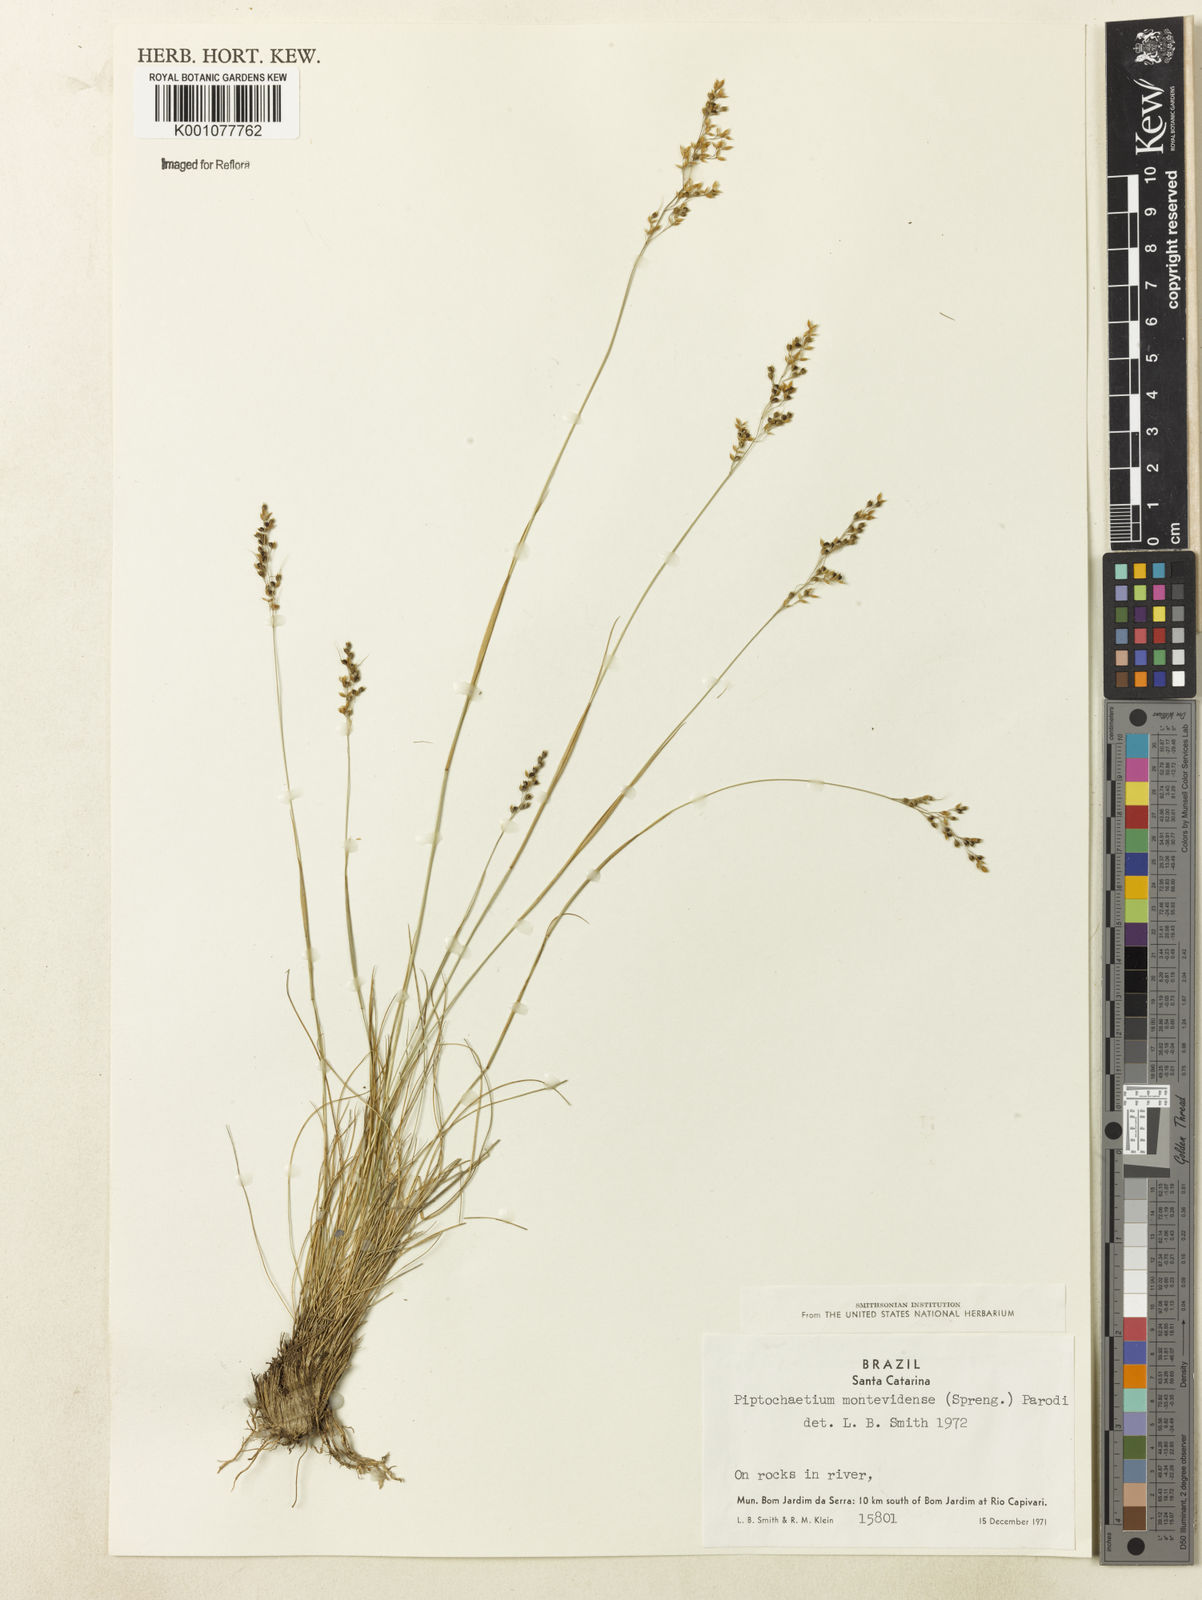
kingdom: Plantae
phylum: Tracheophyta
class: Liliopsida
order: Poales
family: Poaceae
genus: Piptochaetium
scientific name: Piptochaetium montevidense
